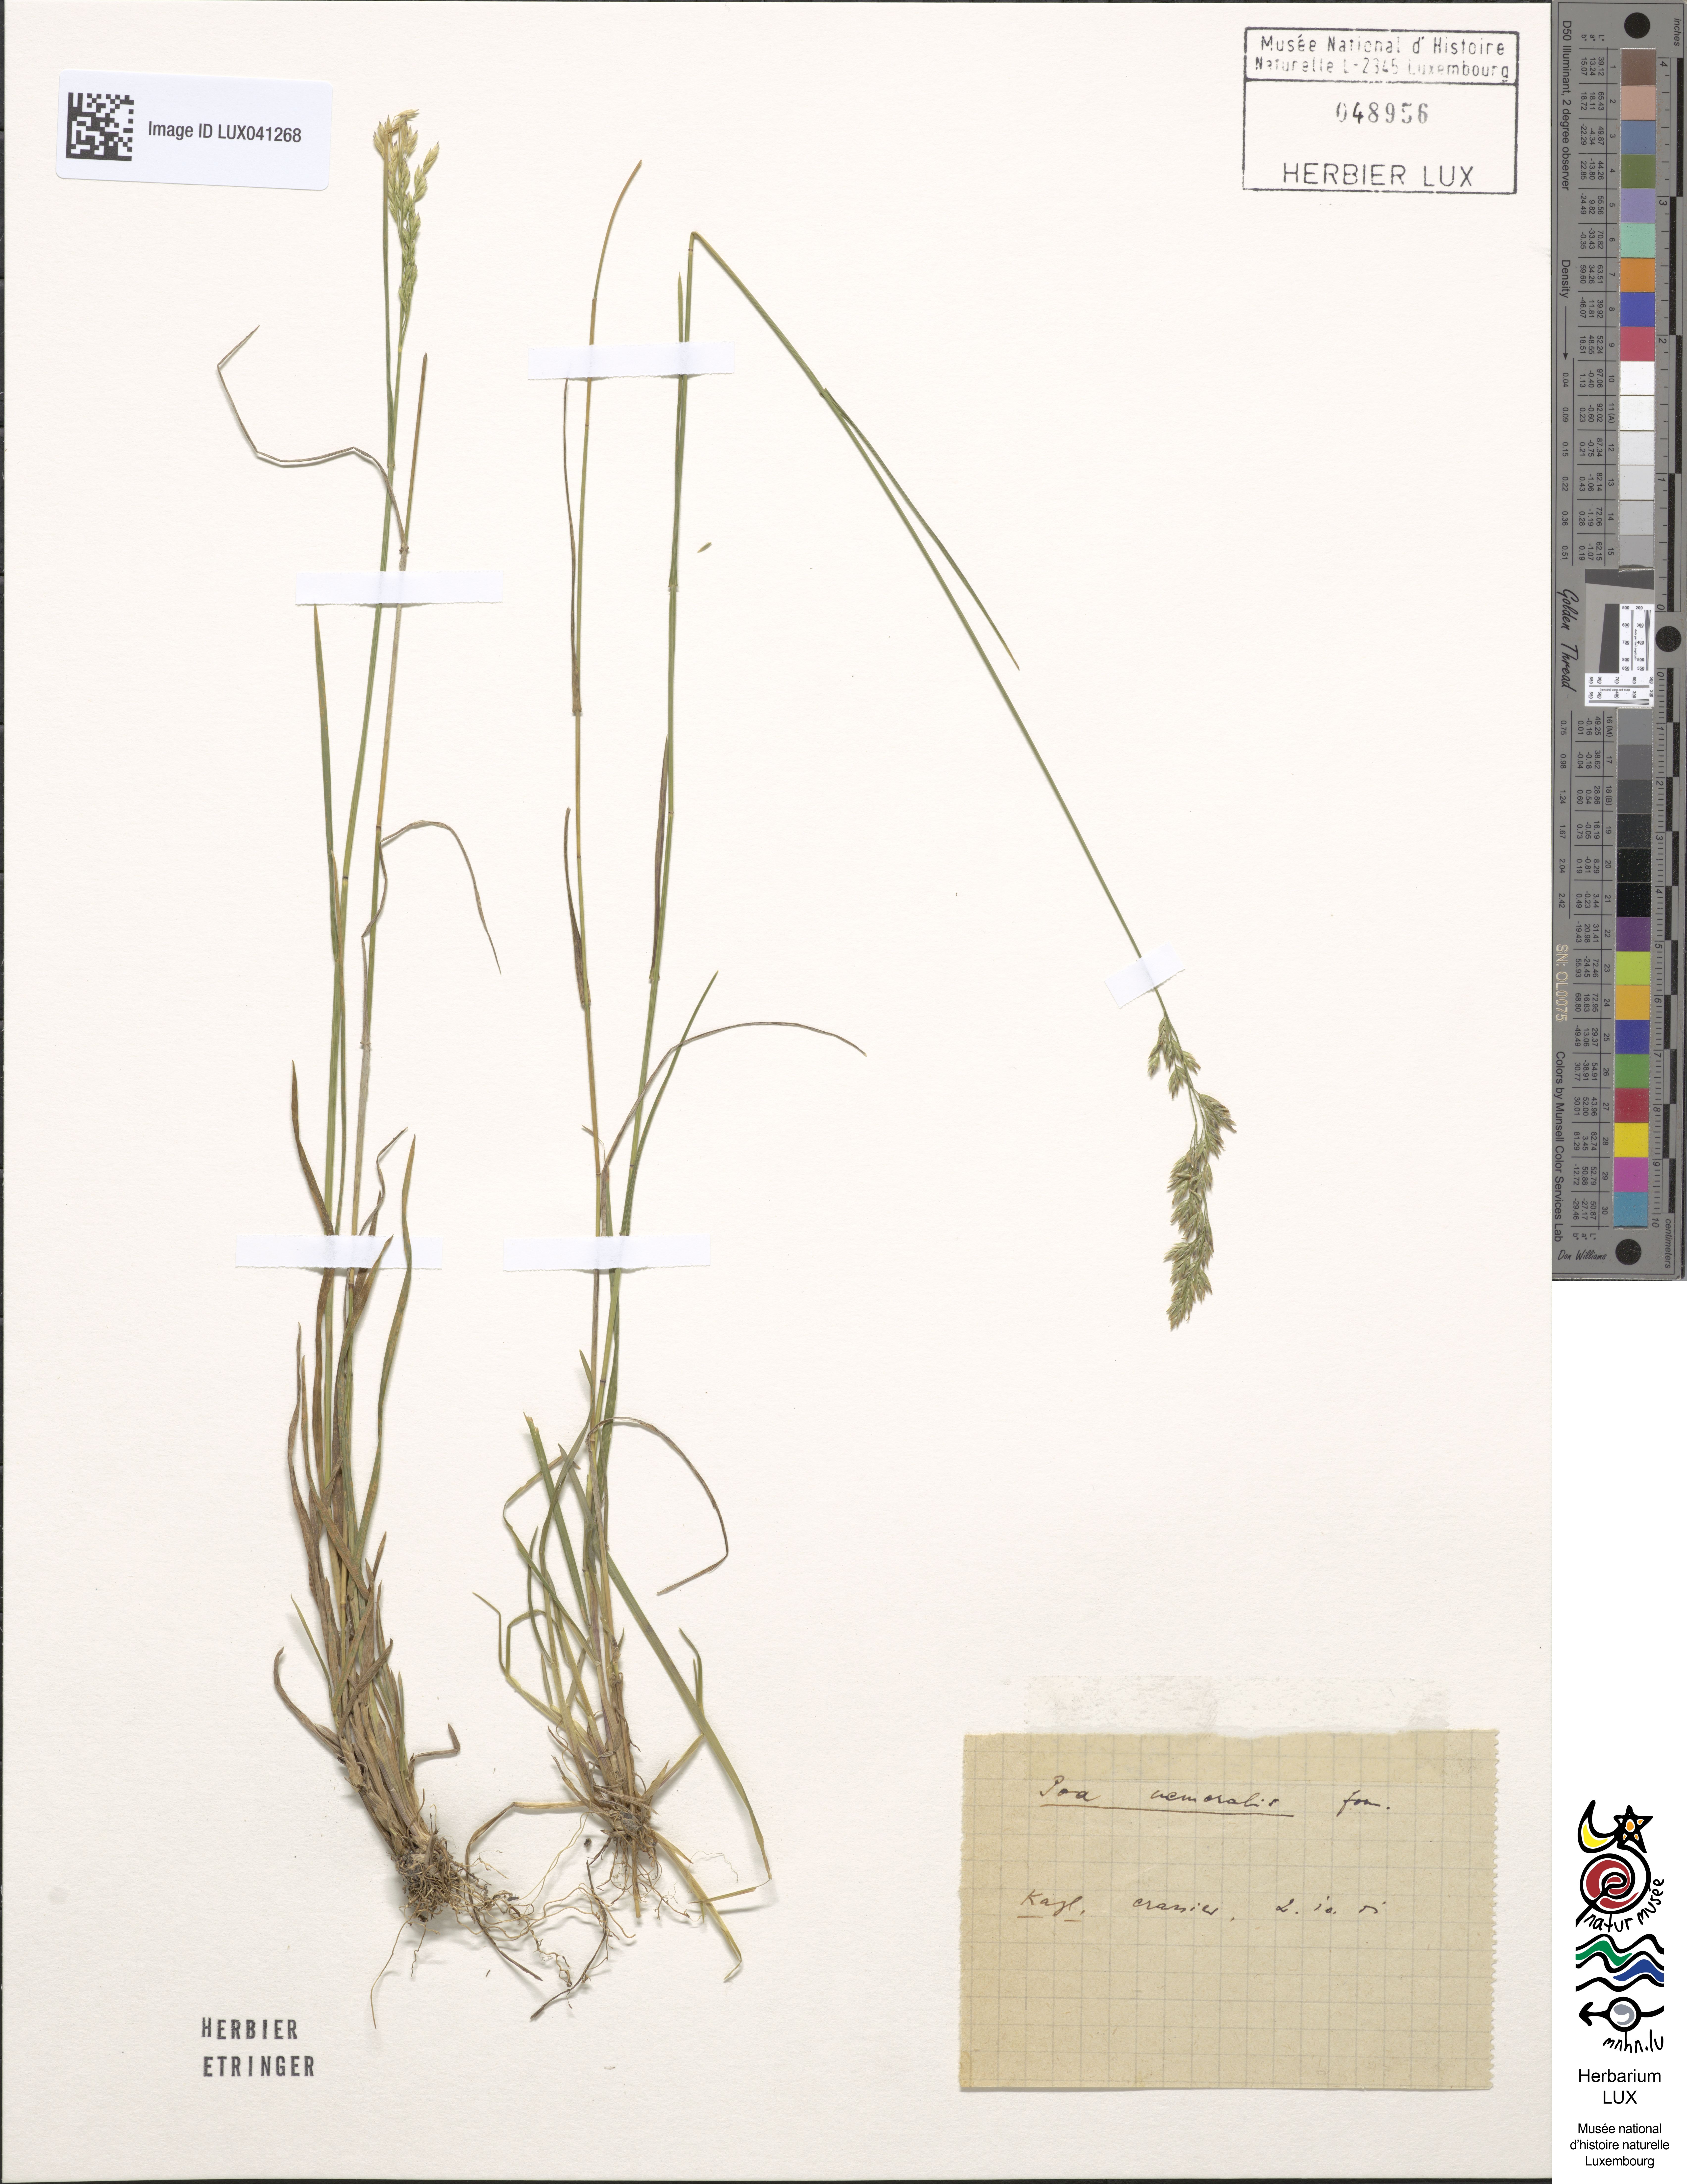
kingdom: Plantae
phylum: Tracheophyta
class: Liliopsida
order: Poales
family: Poaceae
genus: Poa
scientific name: Poa nemoralis
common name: Wood bluegrass
